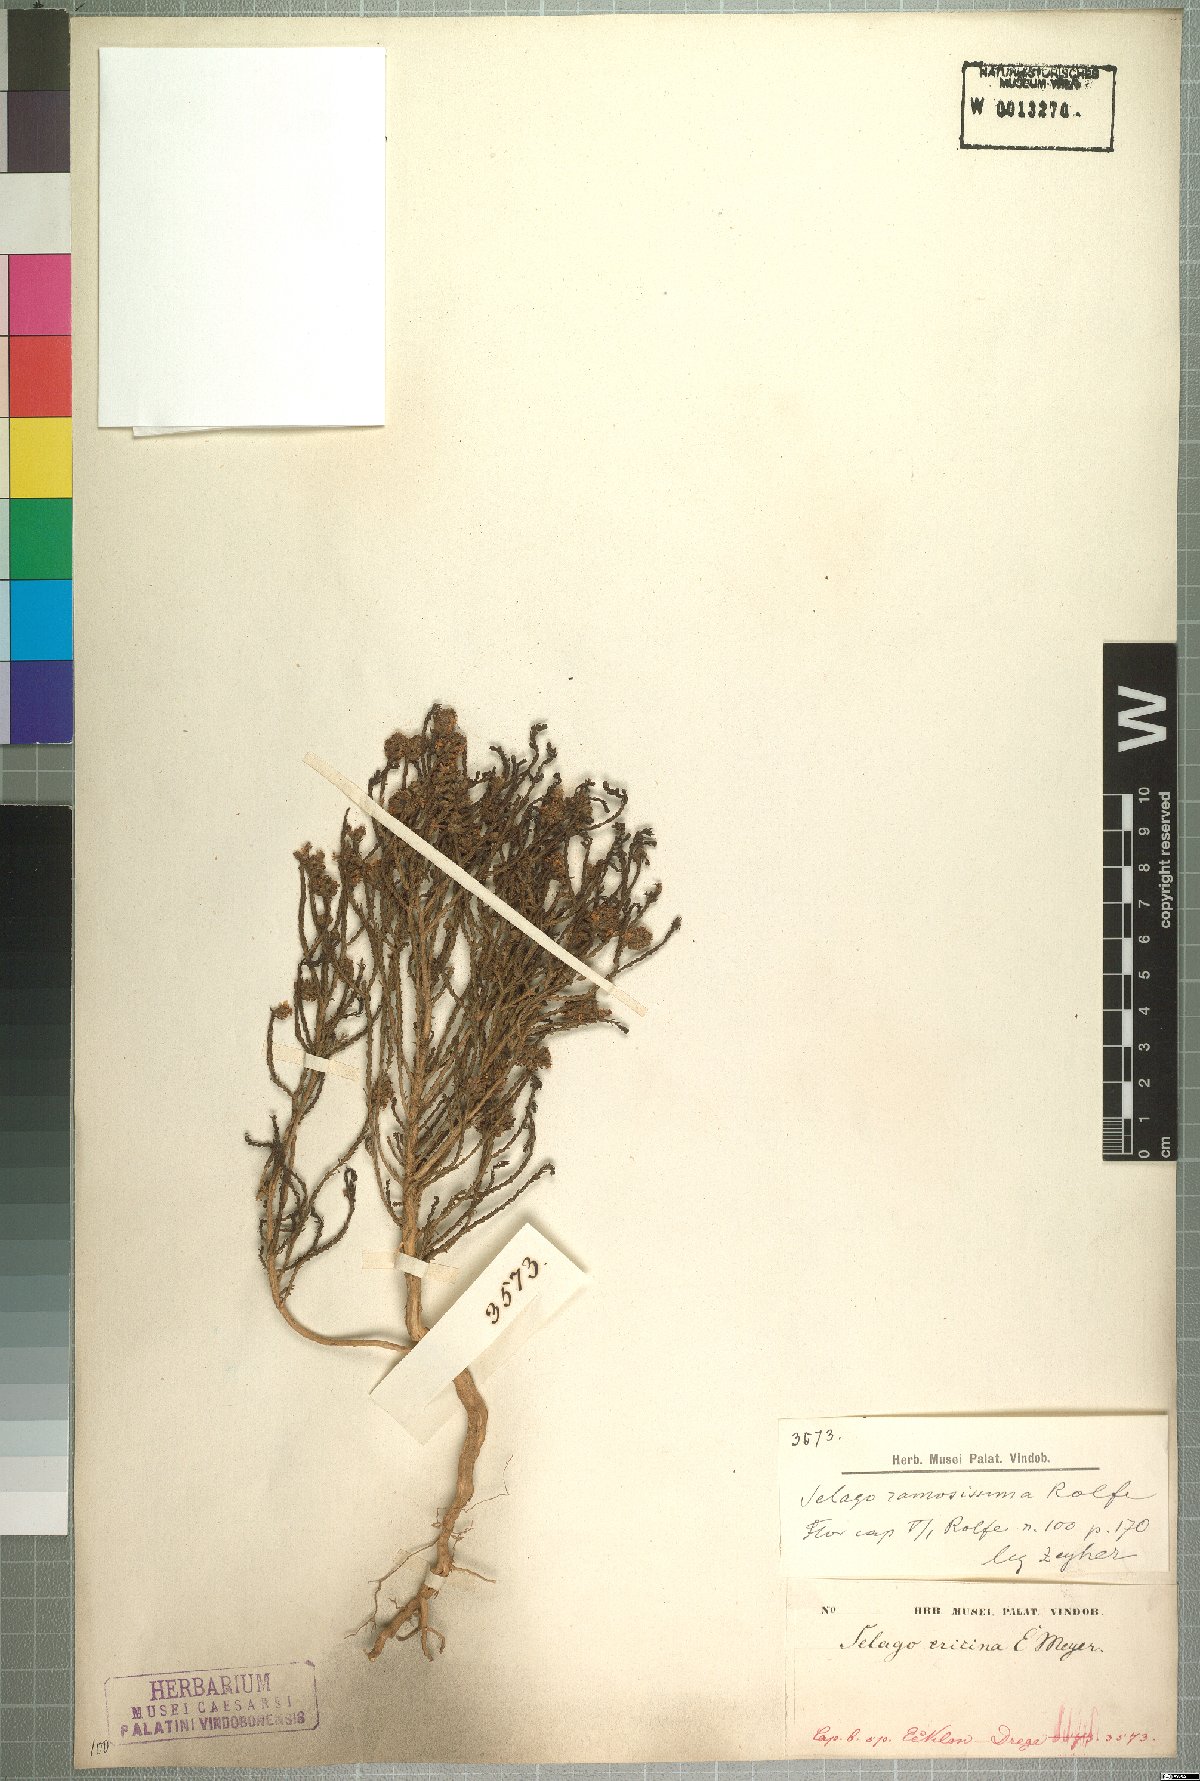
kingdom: Plantae
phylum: Tracheophyta
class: Magnoliopsida
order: Lamiales
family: Scrophulariaceae
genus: Selago
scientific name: Selago ramosissima
